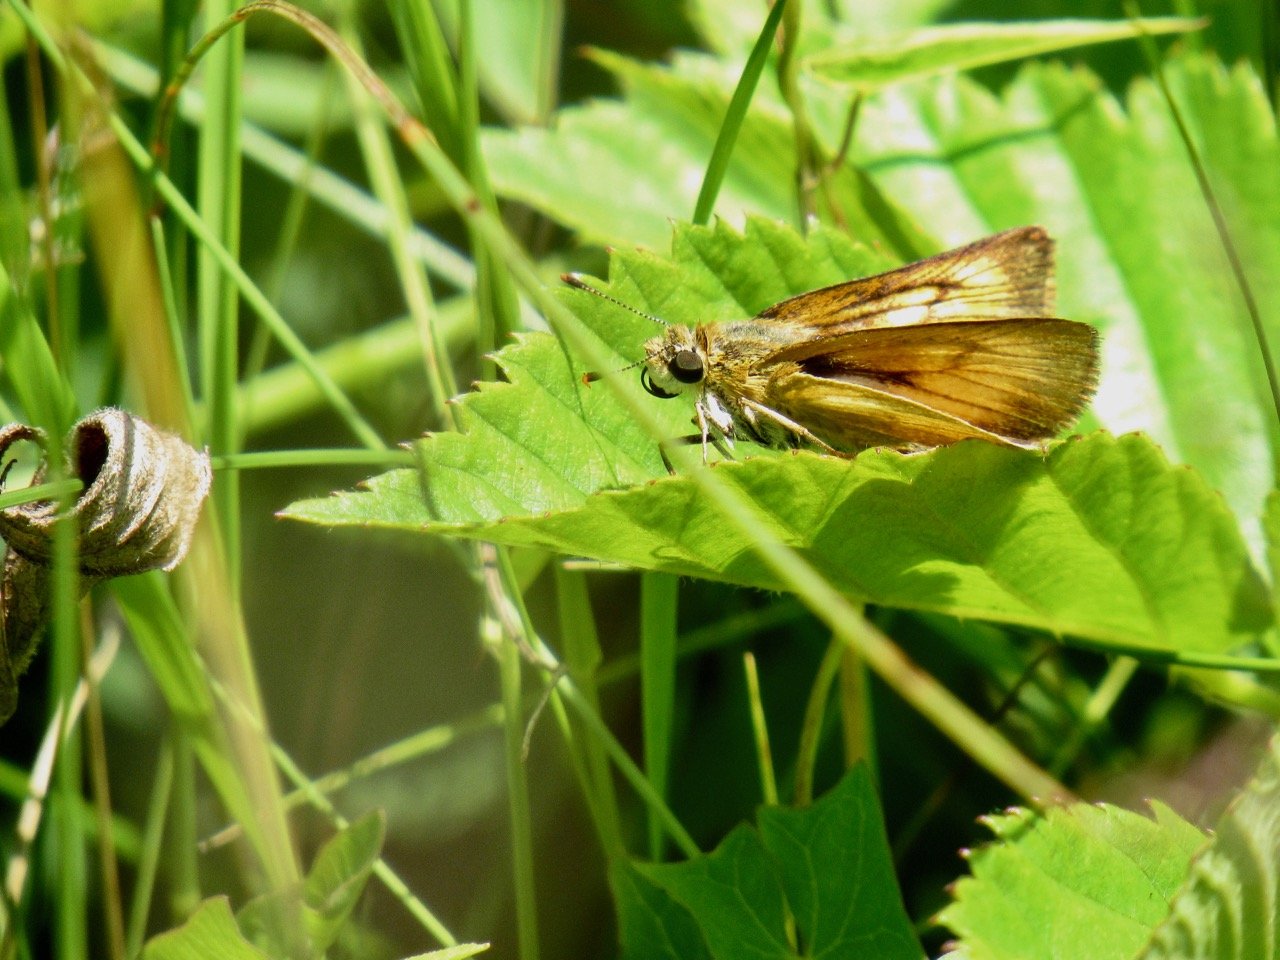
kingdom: Animalia
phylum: Arthropoda
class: Insecta
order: Lepidoptera
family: Hesperiidae
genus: Atrytone
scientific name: Atrytone delaware
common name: Delaware Skipper
